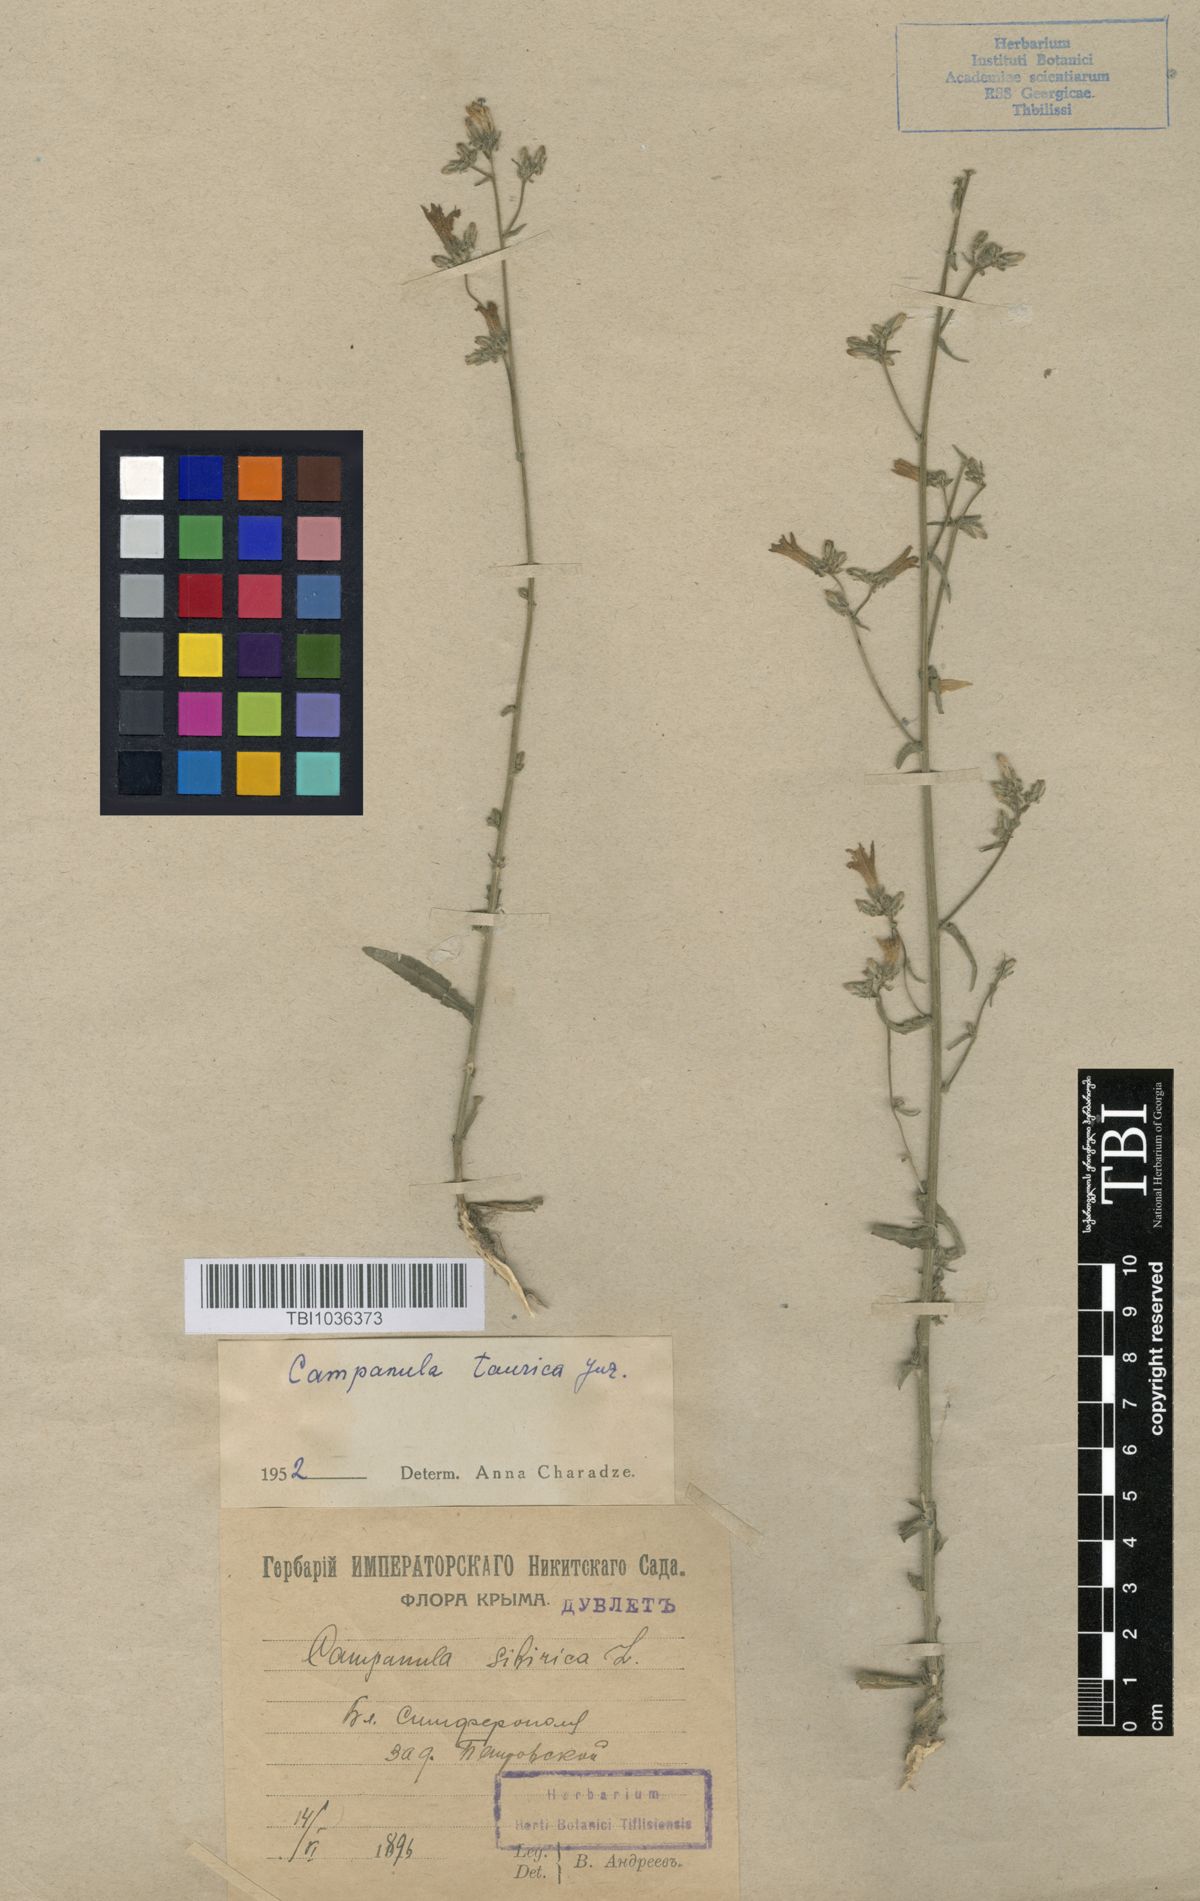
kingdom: Plantae
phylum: Tracheophyta
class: Magnoliopsida
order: Asterales
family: Campanulaceae
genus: Campanula
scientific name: Campanula sibirica
